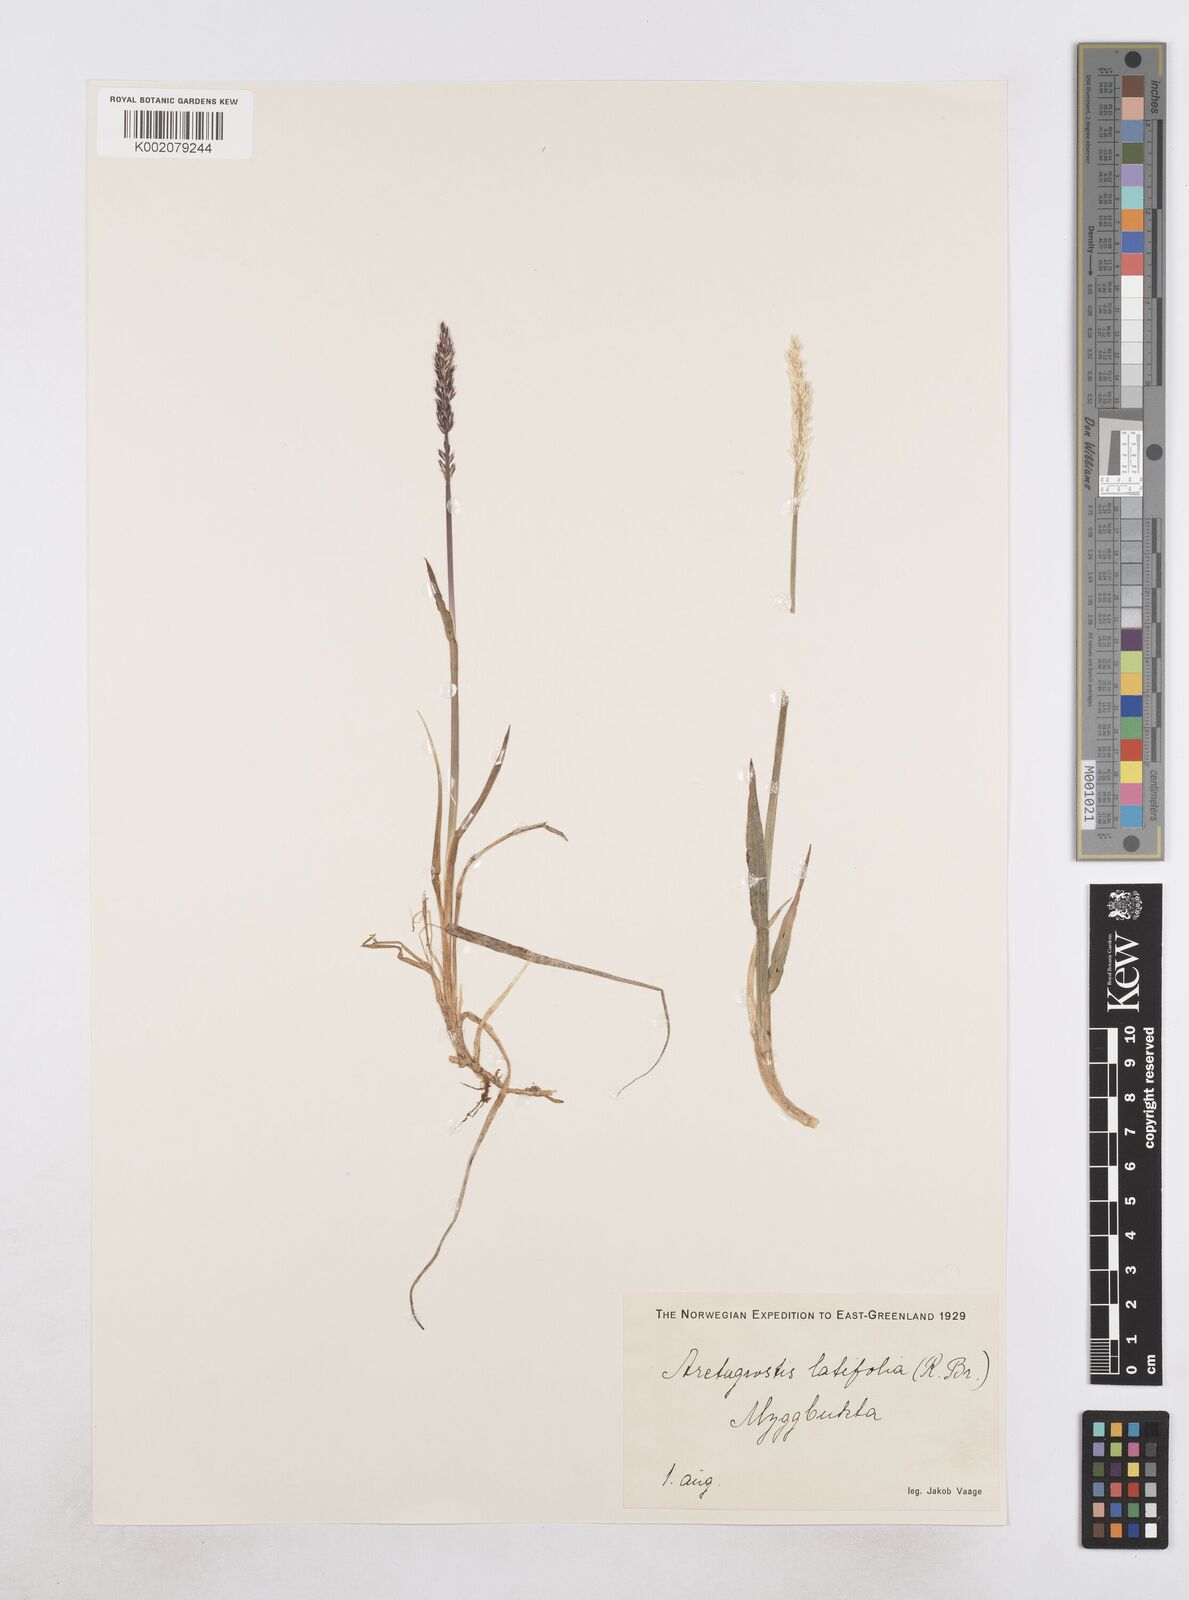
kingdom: Plantae
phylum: Tracheophyta
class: Liliopsida
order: Poales
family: Poaceae
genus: Arctagrostis
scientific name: Arctagrostis latifolia
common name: Arctic grass
